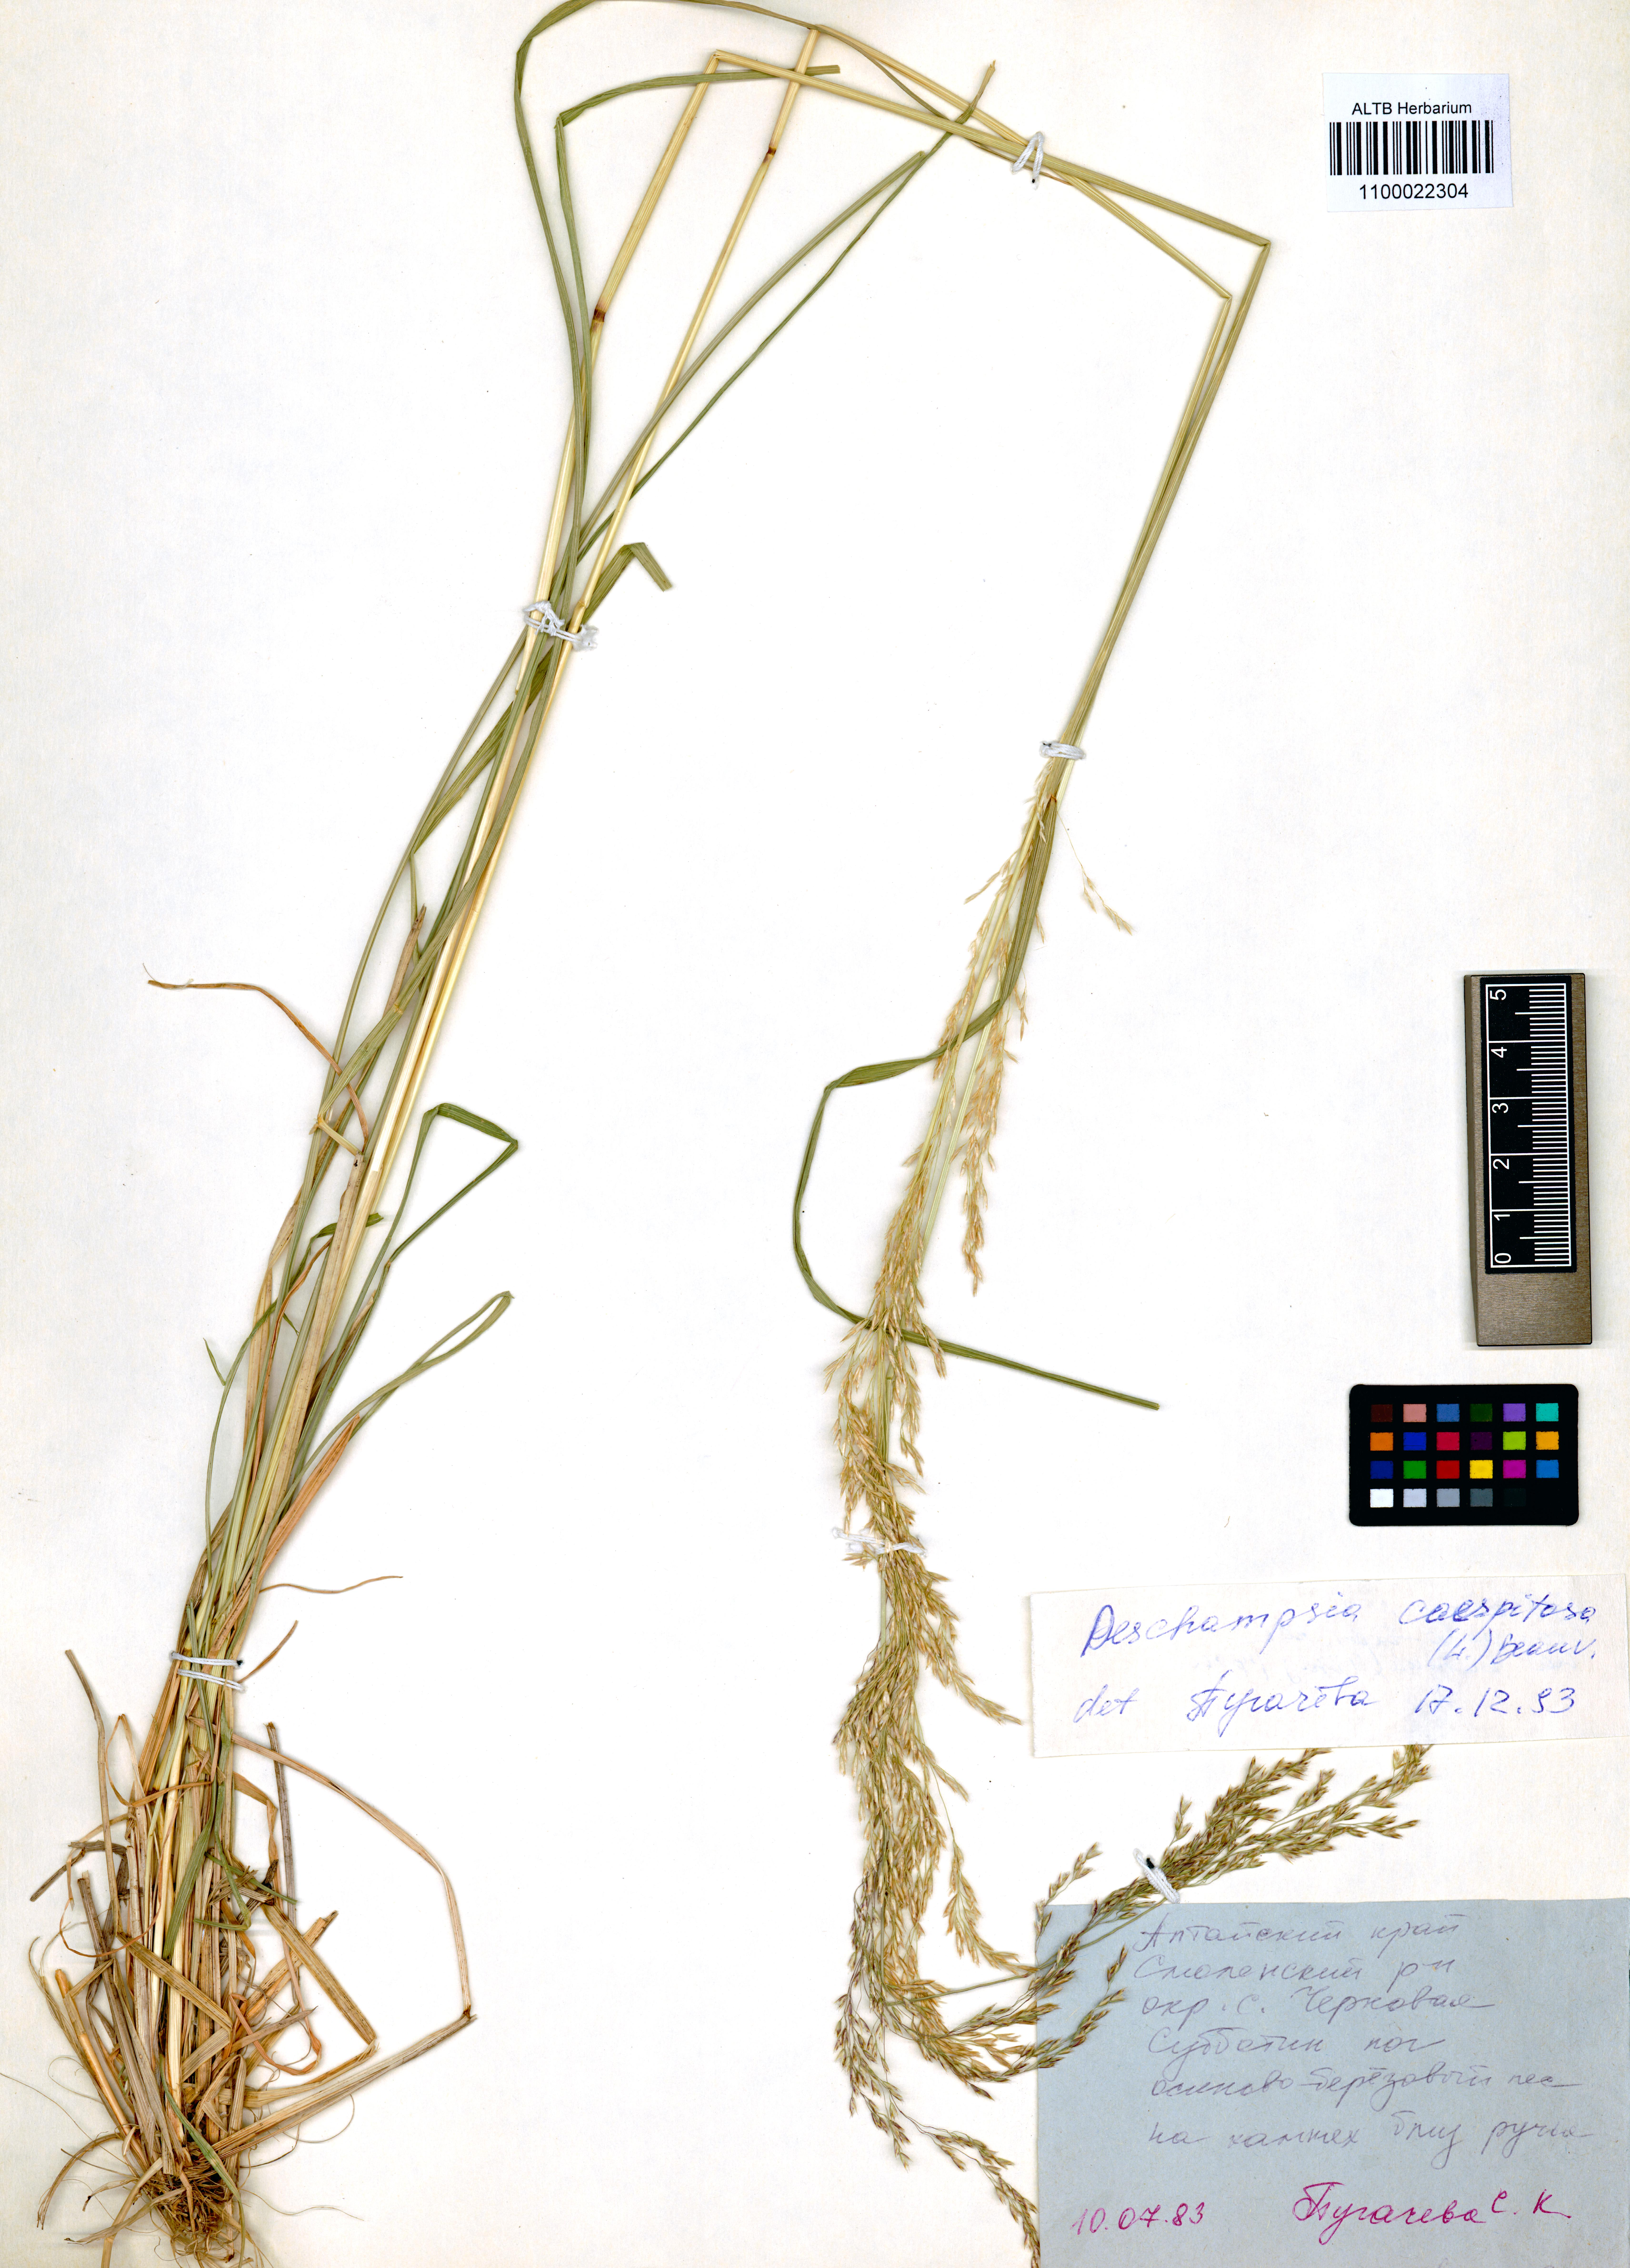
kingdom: Plantae
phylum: Tracheophyta
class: Liliopsida
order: Poales
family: Poaceae
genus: Deschampsia
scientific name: Deschampsia cespitosa
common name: Tufted hair-grass
